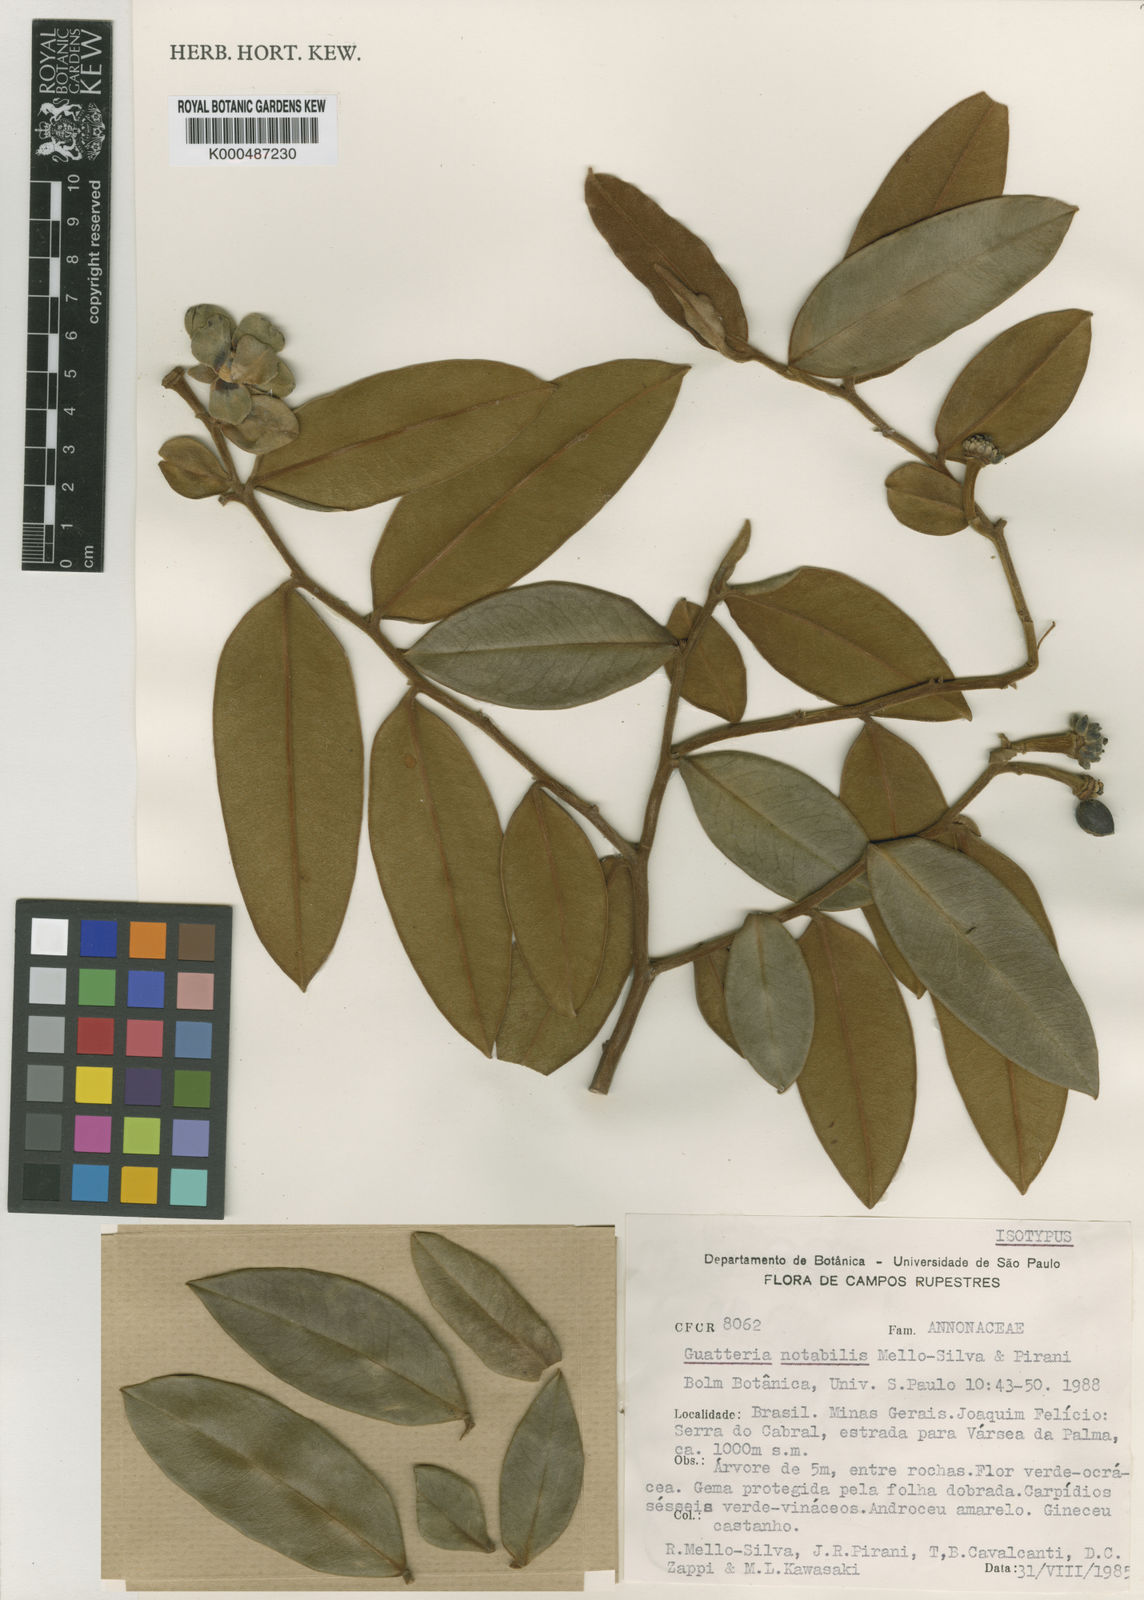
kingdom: Plantae
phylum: Tracheophyta
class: Magnoliopsida
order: Magnoliales
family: Annonaceae
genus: Guatteria
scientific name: Guatteria notabilis
